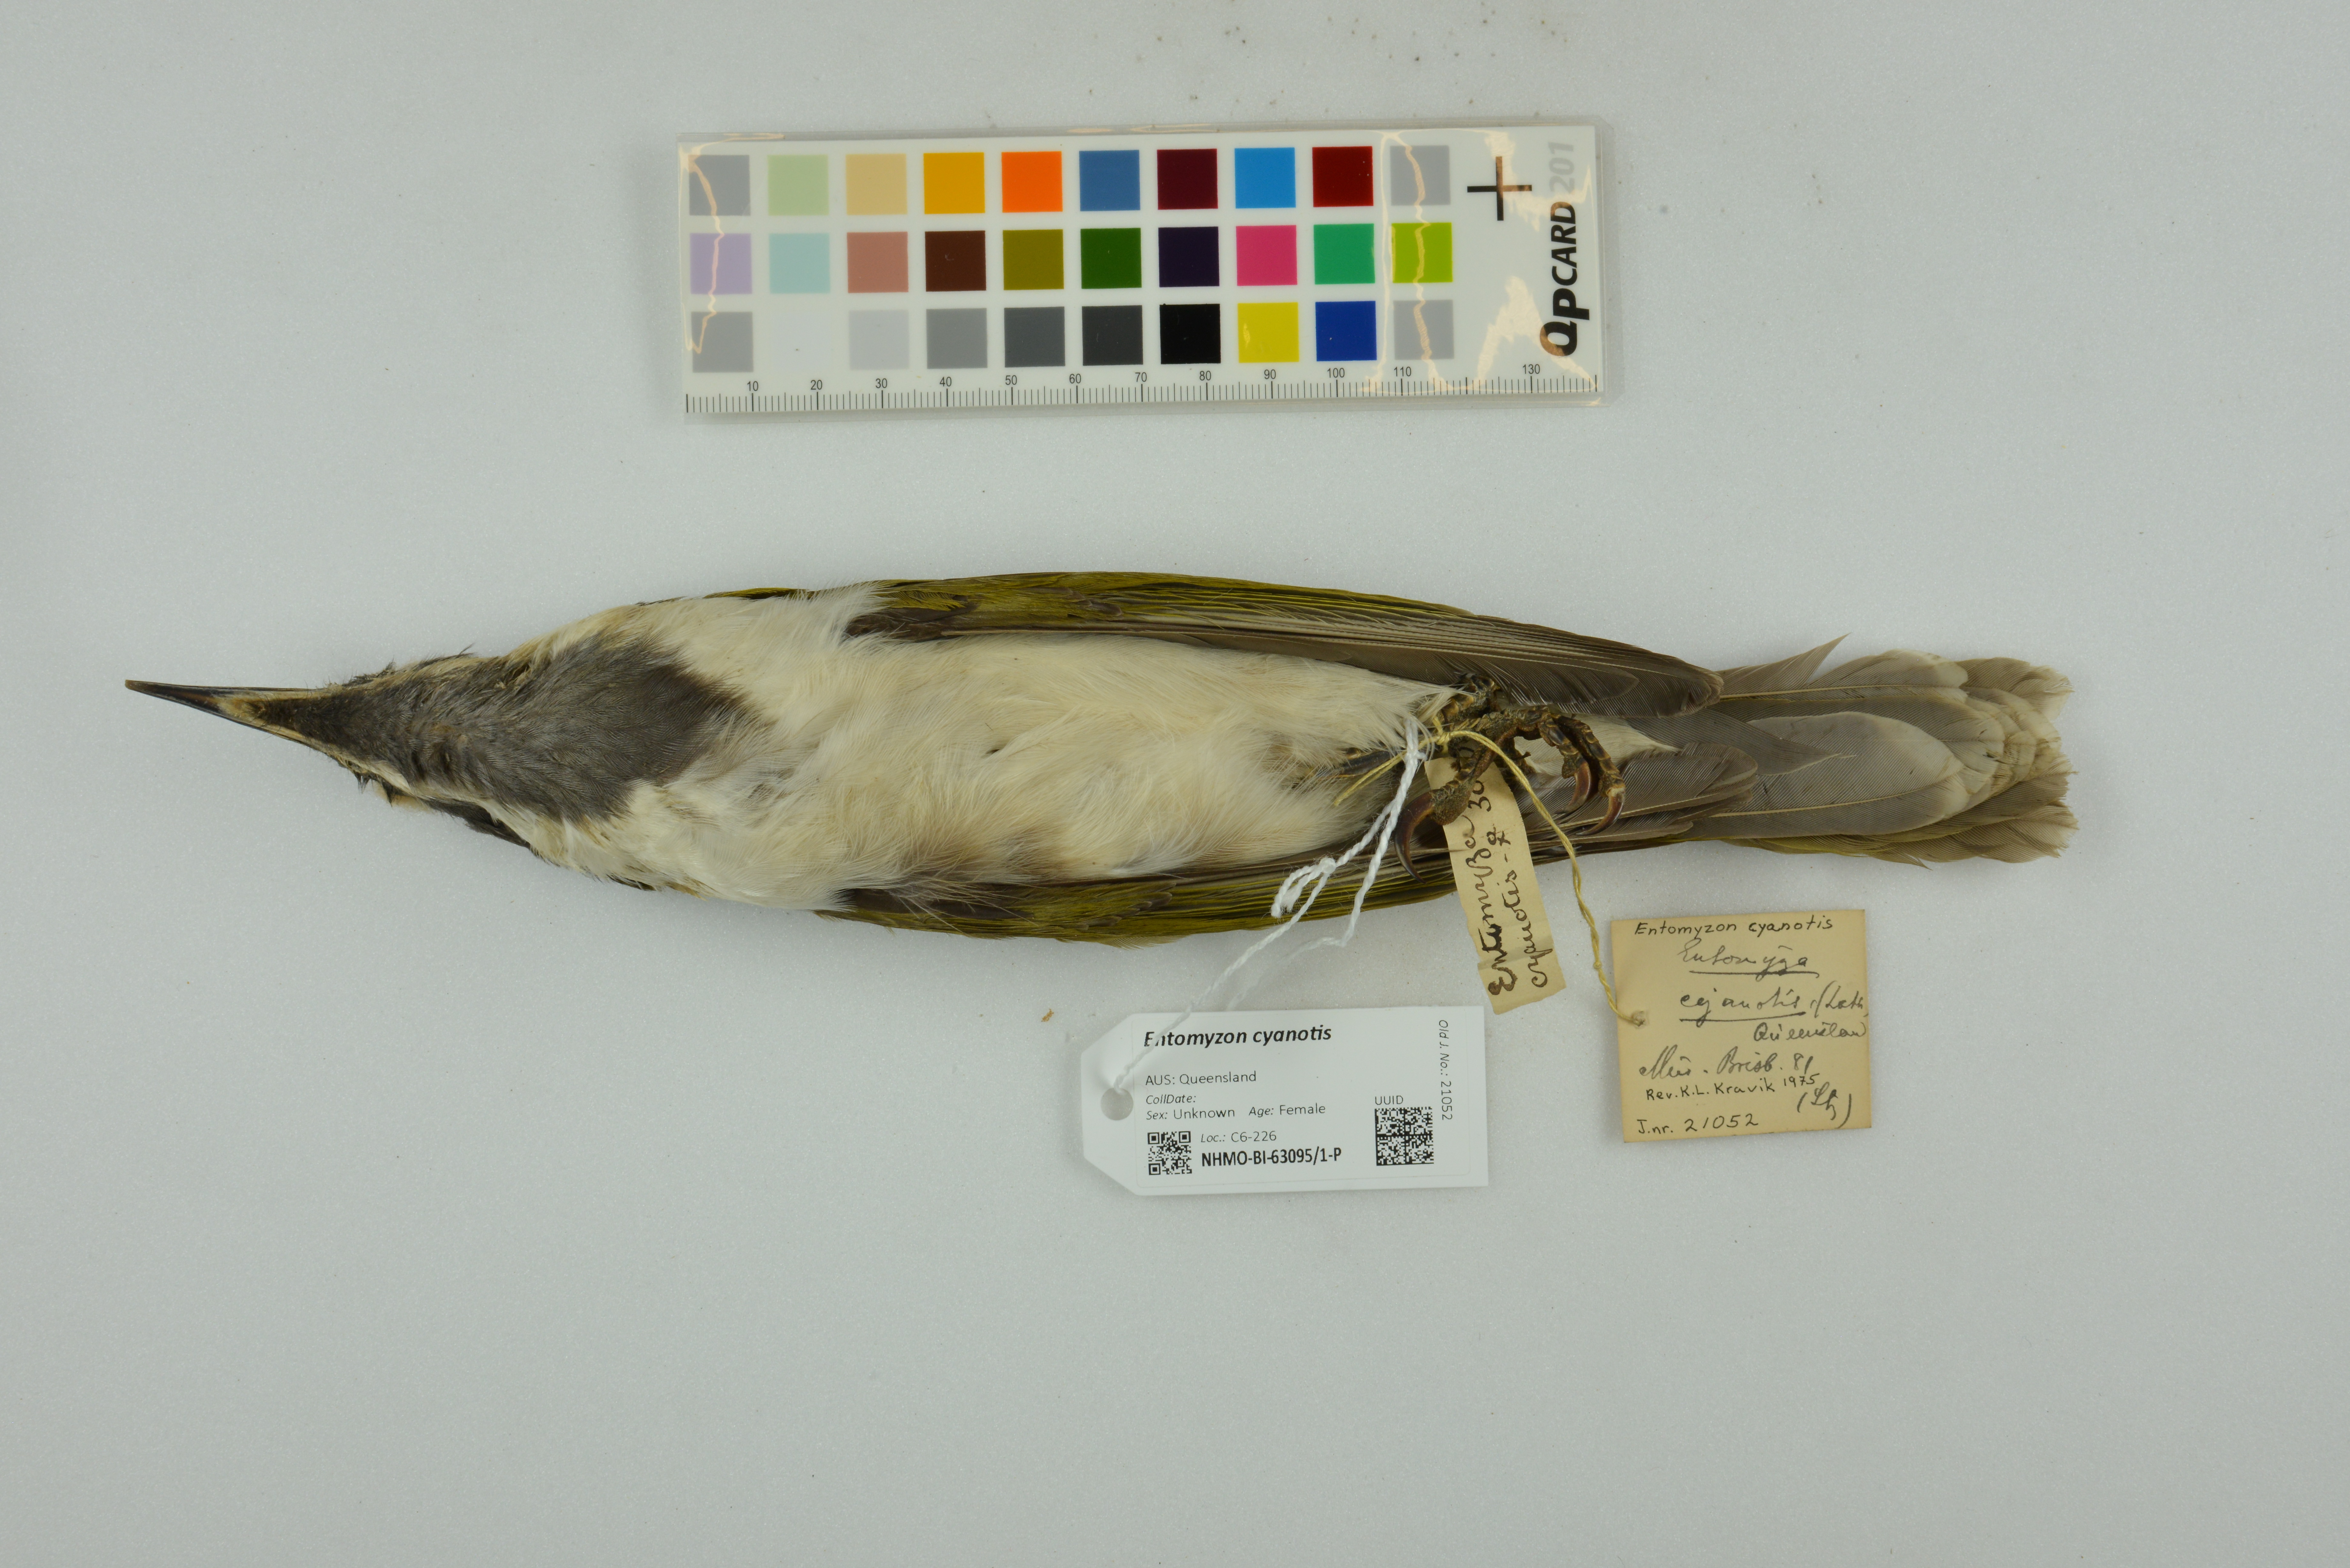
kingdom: Animalia
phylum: Chordata
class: Aves
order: Passeriformes
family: Meliphagidae
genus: Entomyzon
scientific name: Entomyzon cyanotis
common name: Blue-faced honeyeater
